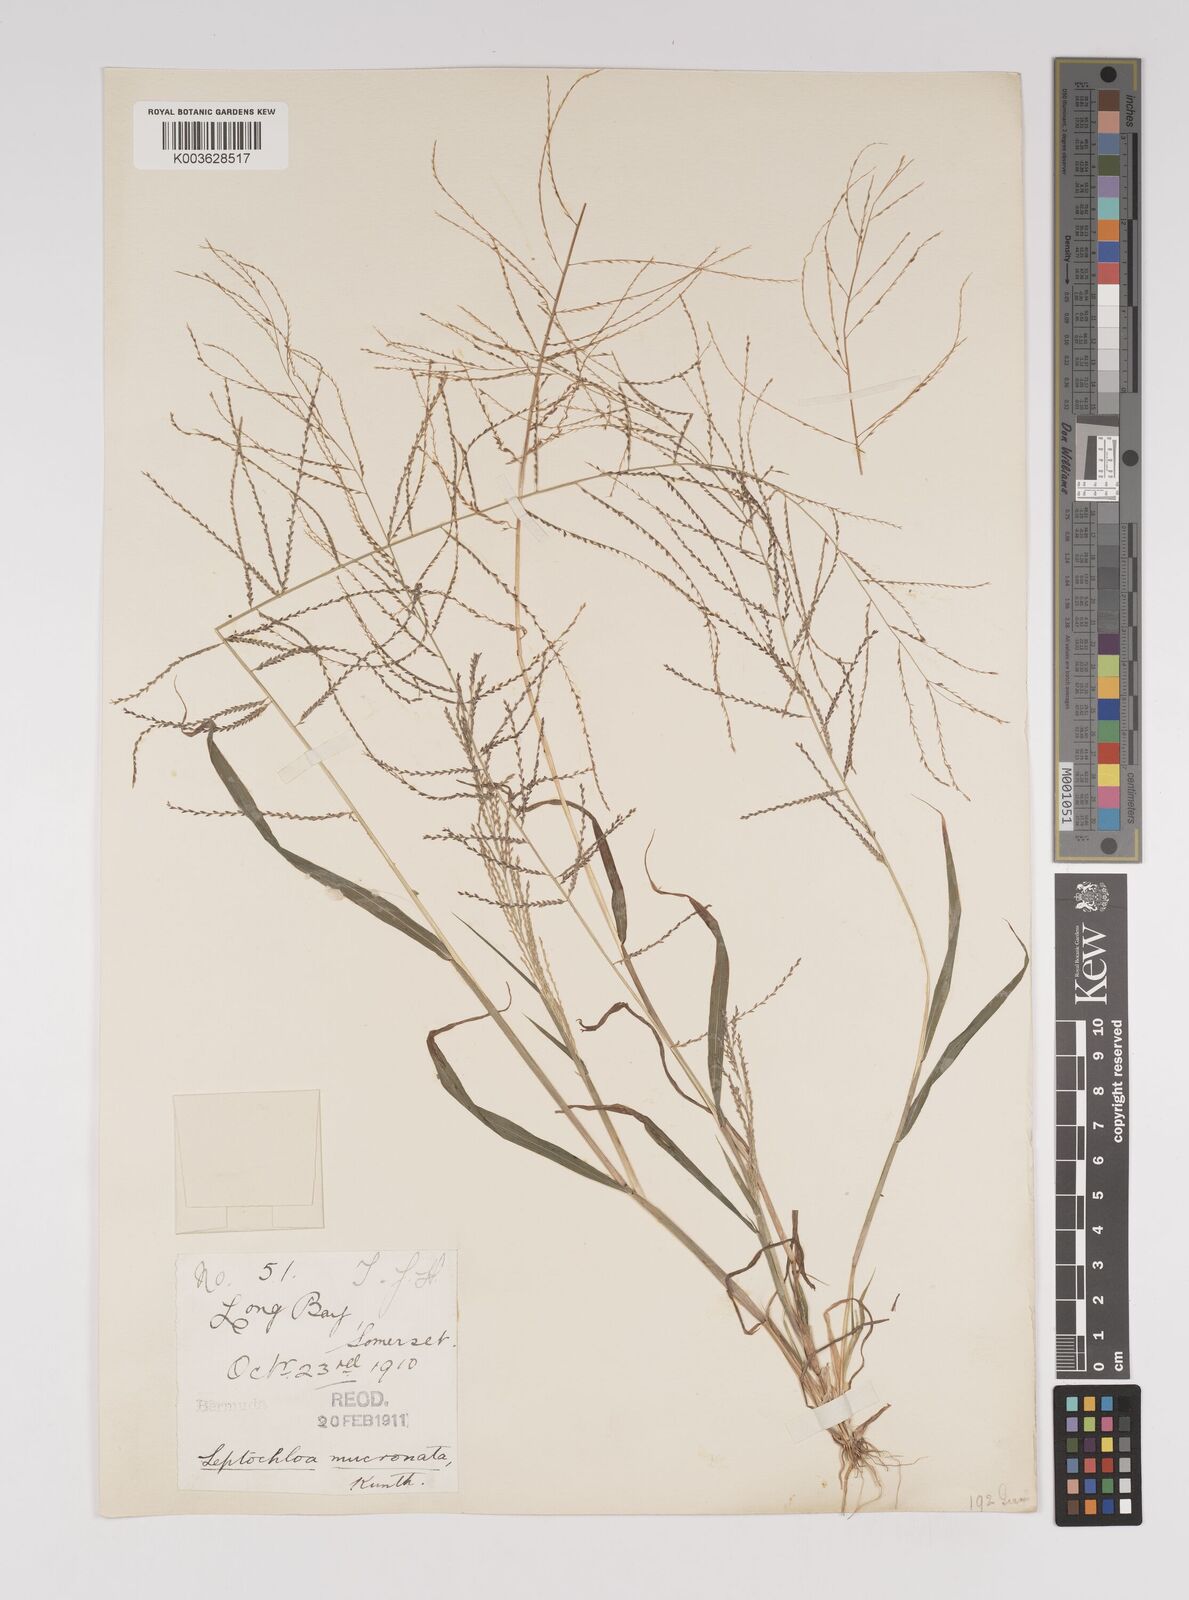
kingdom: Plantae
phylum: Tracheophyta
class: Liliopsida
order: Poales
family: Poaceae
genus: Leptochloa
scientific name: Leptochloa panicea
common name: Mucronate sprangletop
